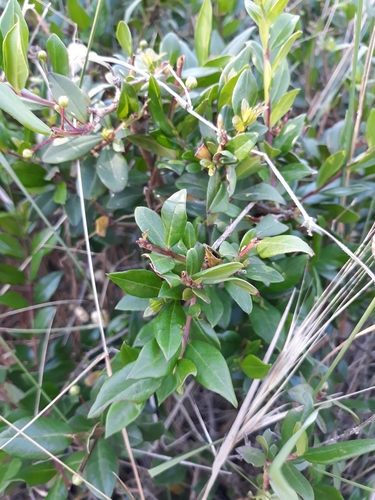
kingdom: Plantae
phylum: Tracheophyta
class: Magnoliopsida
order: Myrtales
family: Myrtaceae
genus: Myrtus
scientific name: Myrtus communis
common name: Myrtle
